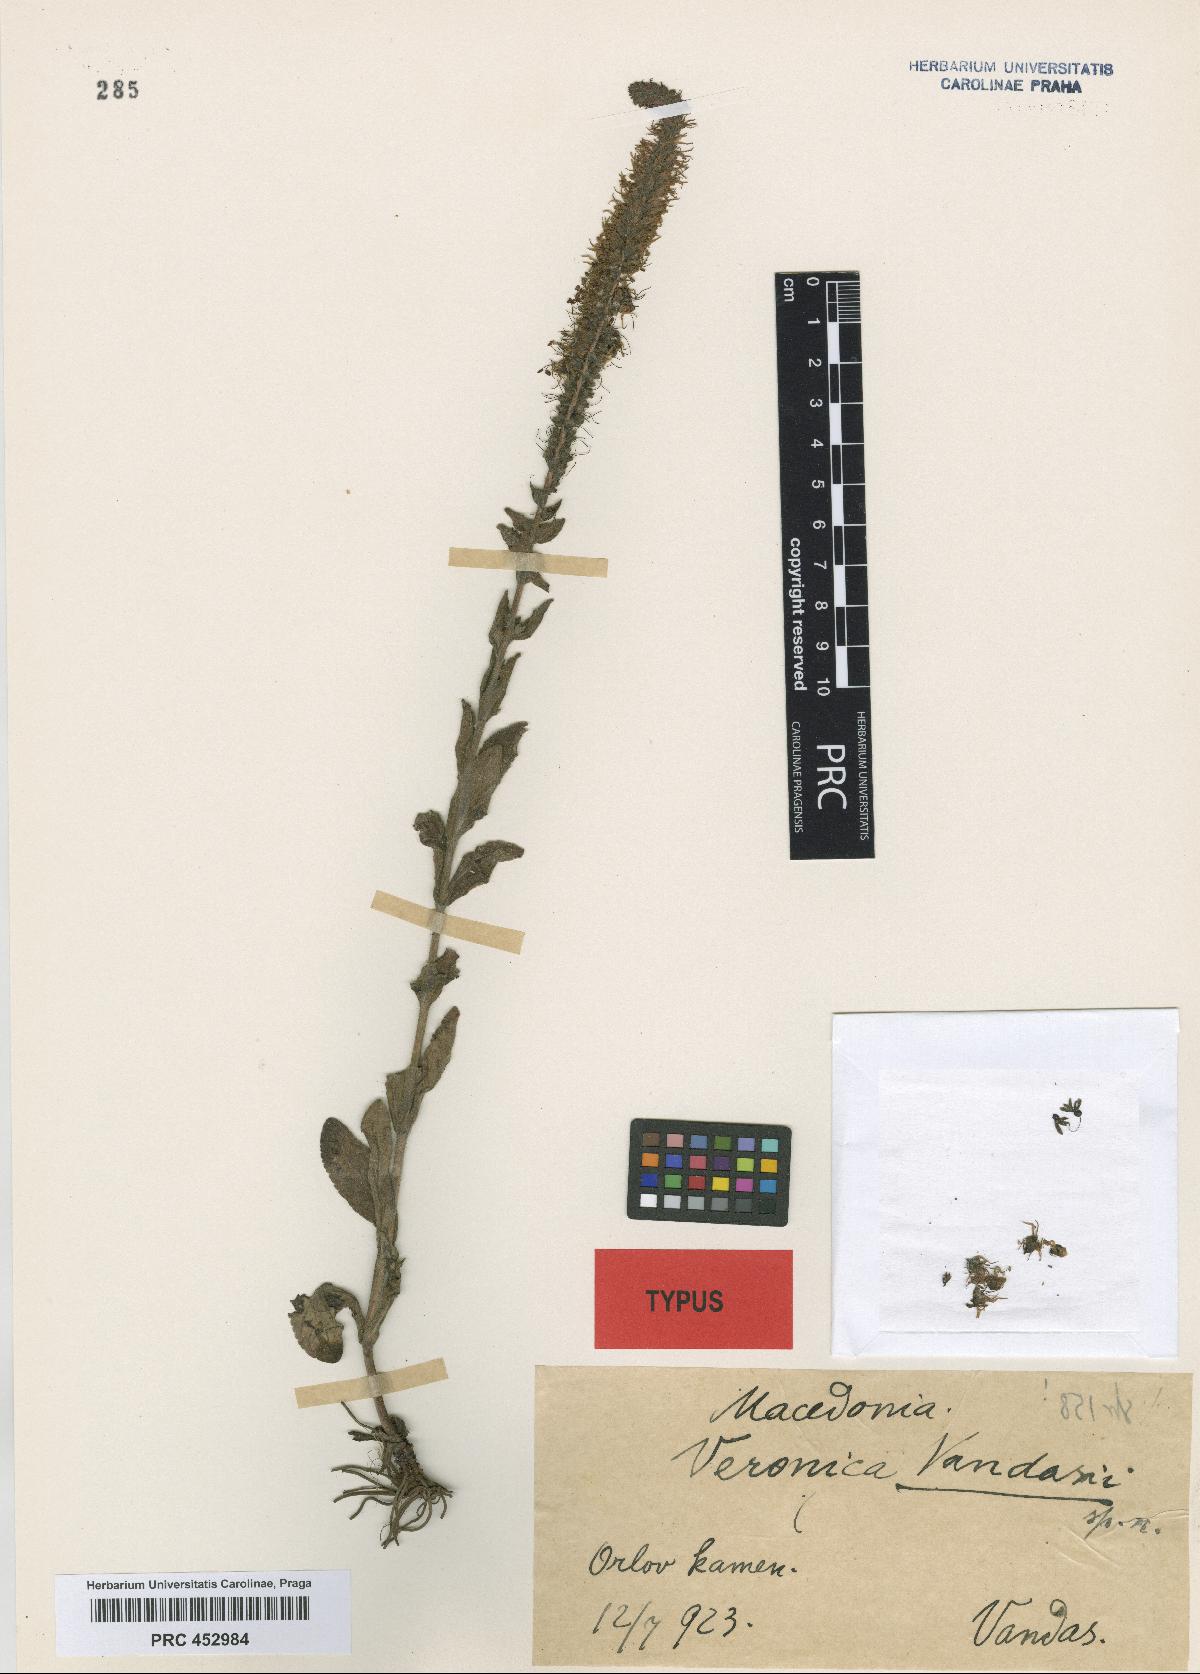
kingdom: Plantae
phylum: Tracheophyta
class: Magnoliopsida
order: Lamiales
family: Plantaginaceae
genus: Veronica
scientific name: Veronica orchidea
